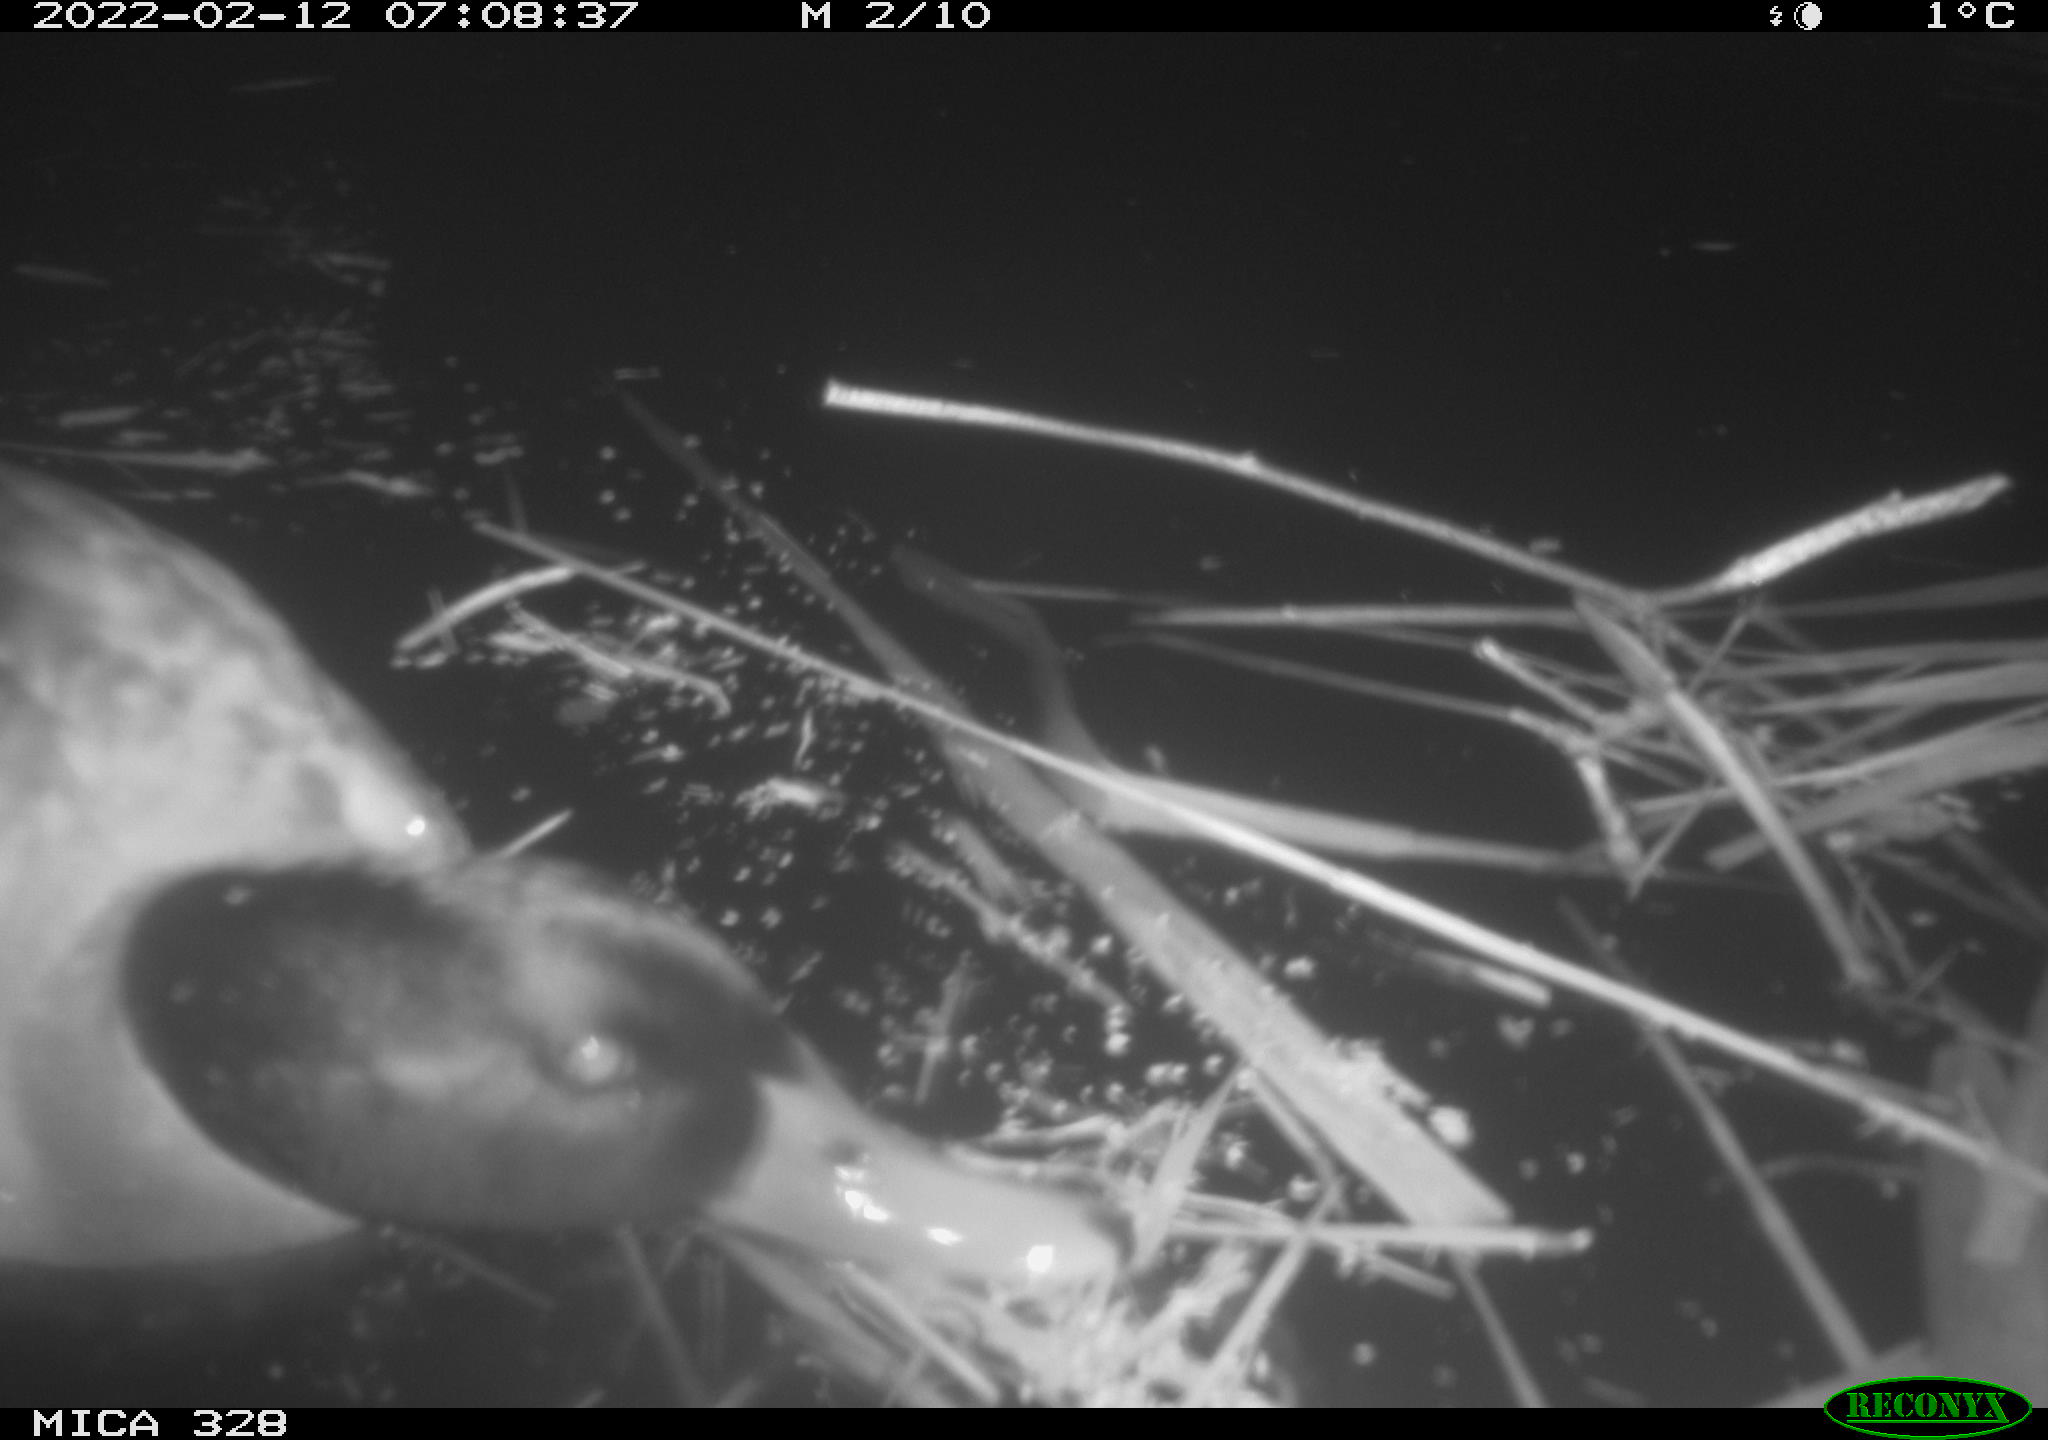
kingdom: Animalia
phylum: Chordata
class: Aves
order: Anseriformes
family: Anatidae
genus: Anas
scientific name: Anas platyrhynchos
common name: Mallard
